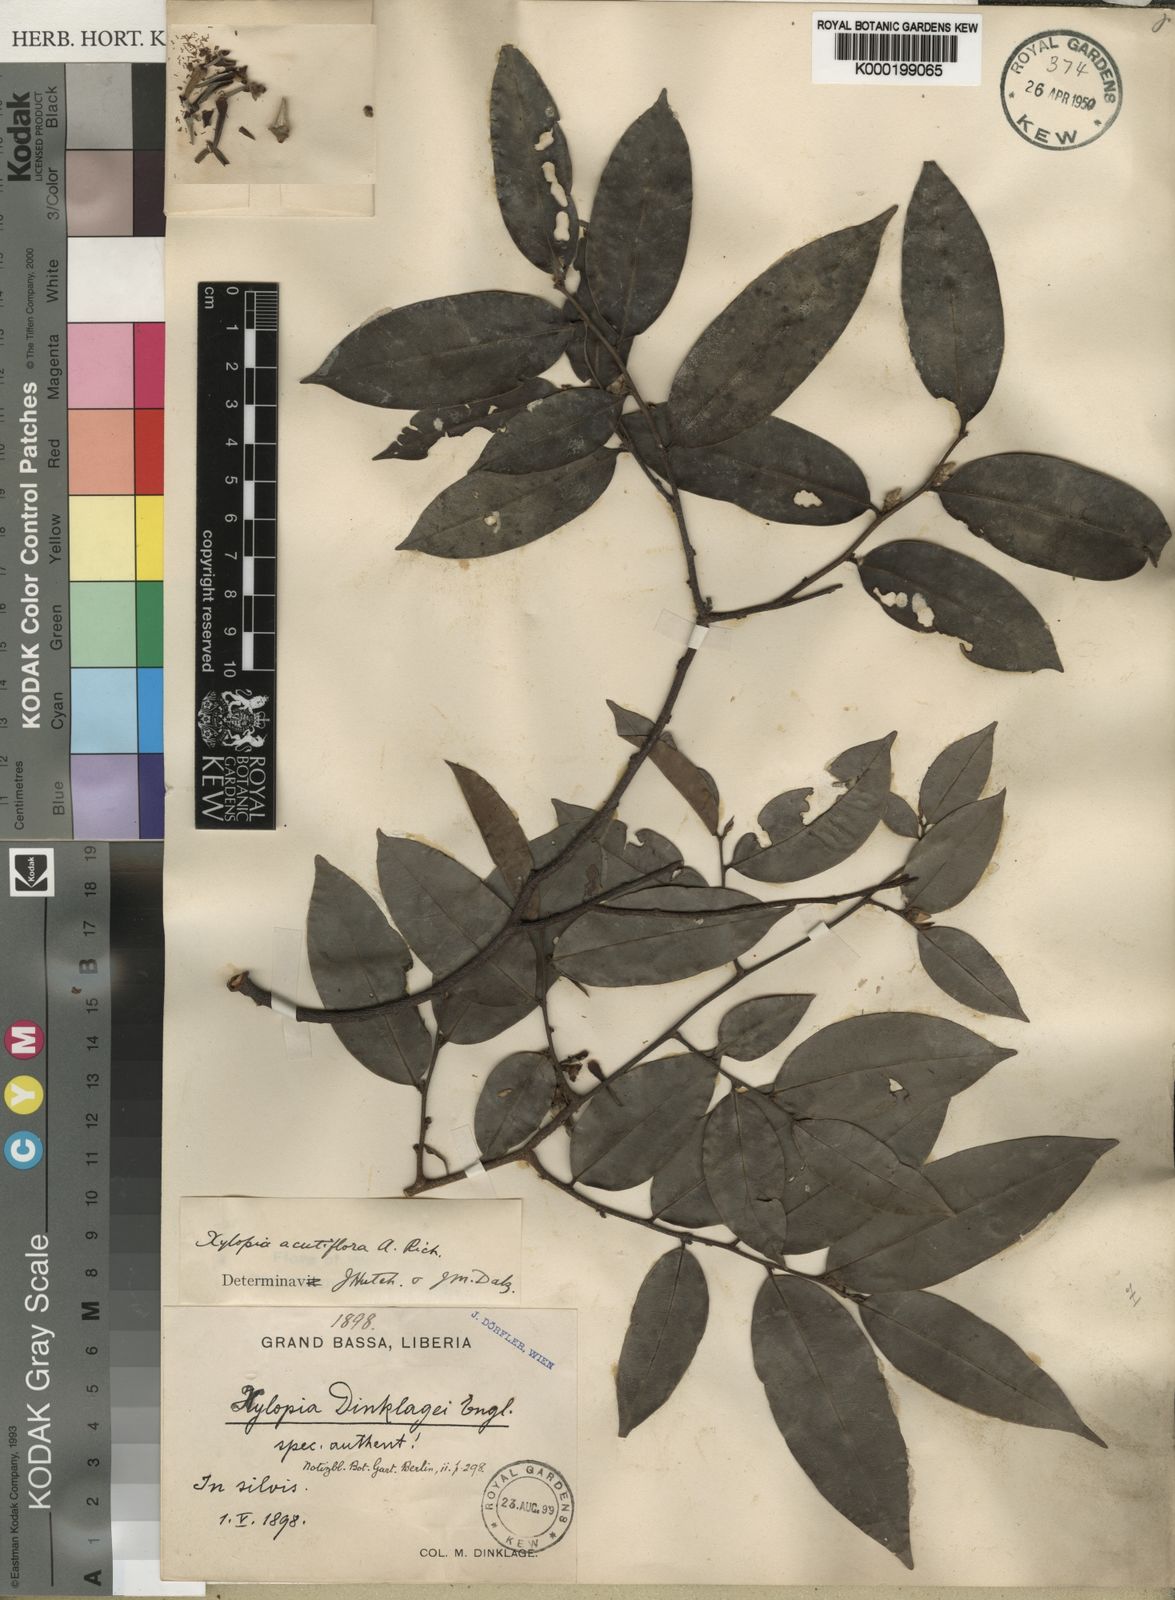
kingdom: Plantae
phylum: Tracheophyta
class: Magnoliopsida
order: Magnoliales
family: Annonaceae
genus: Xylopia
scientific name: Xylopia acutiflora
